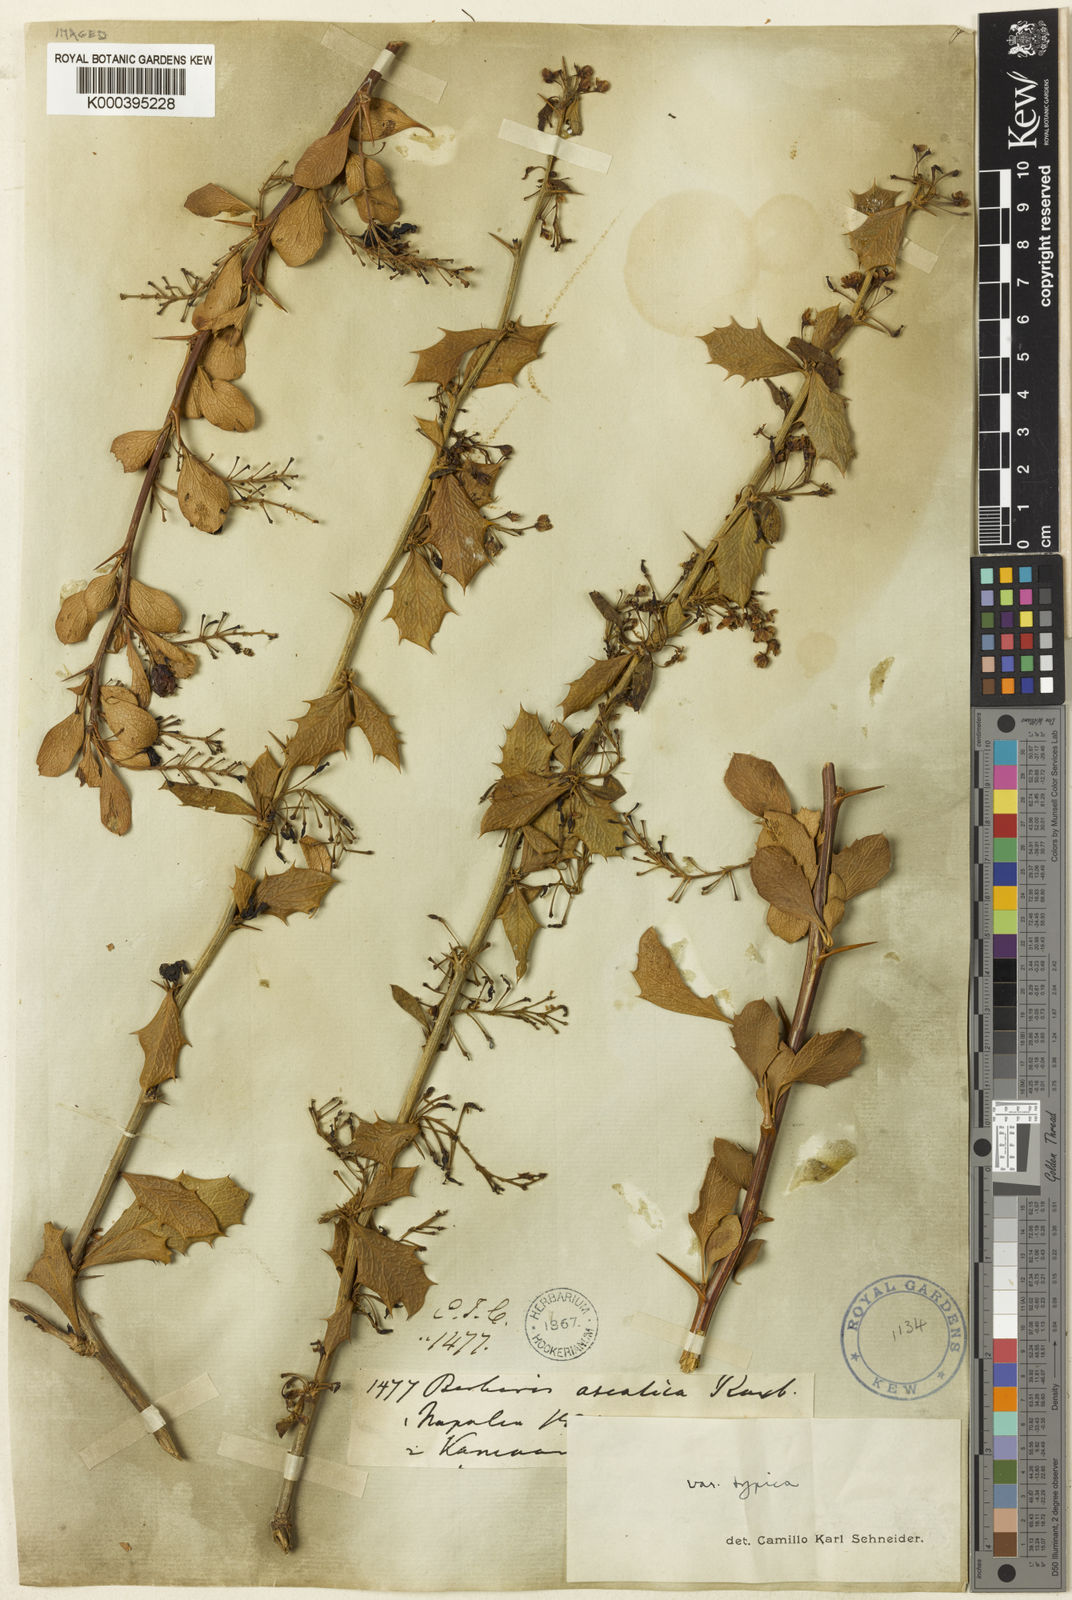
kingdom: Plantae
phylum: Tracheophyta
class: Magnoliopsida
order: Ranunculales
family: Berberidaceae
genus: Berberis
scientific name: Berberis asiatica
